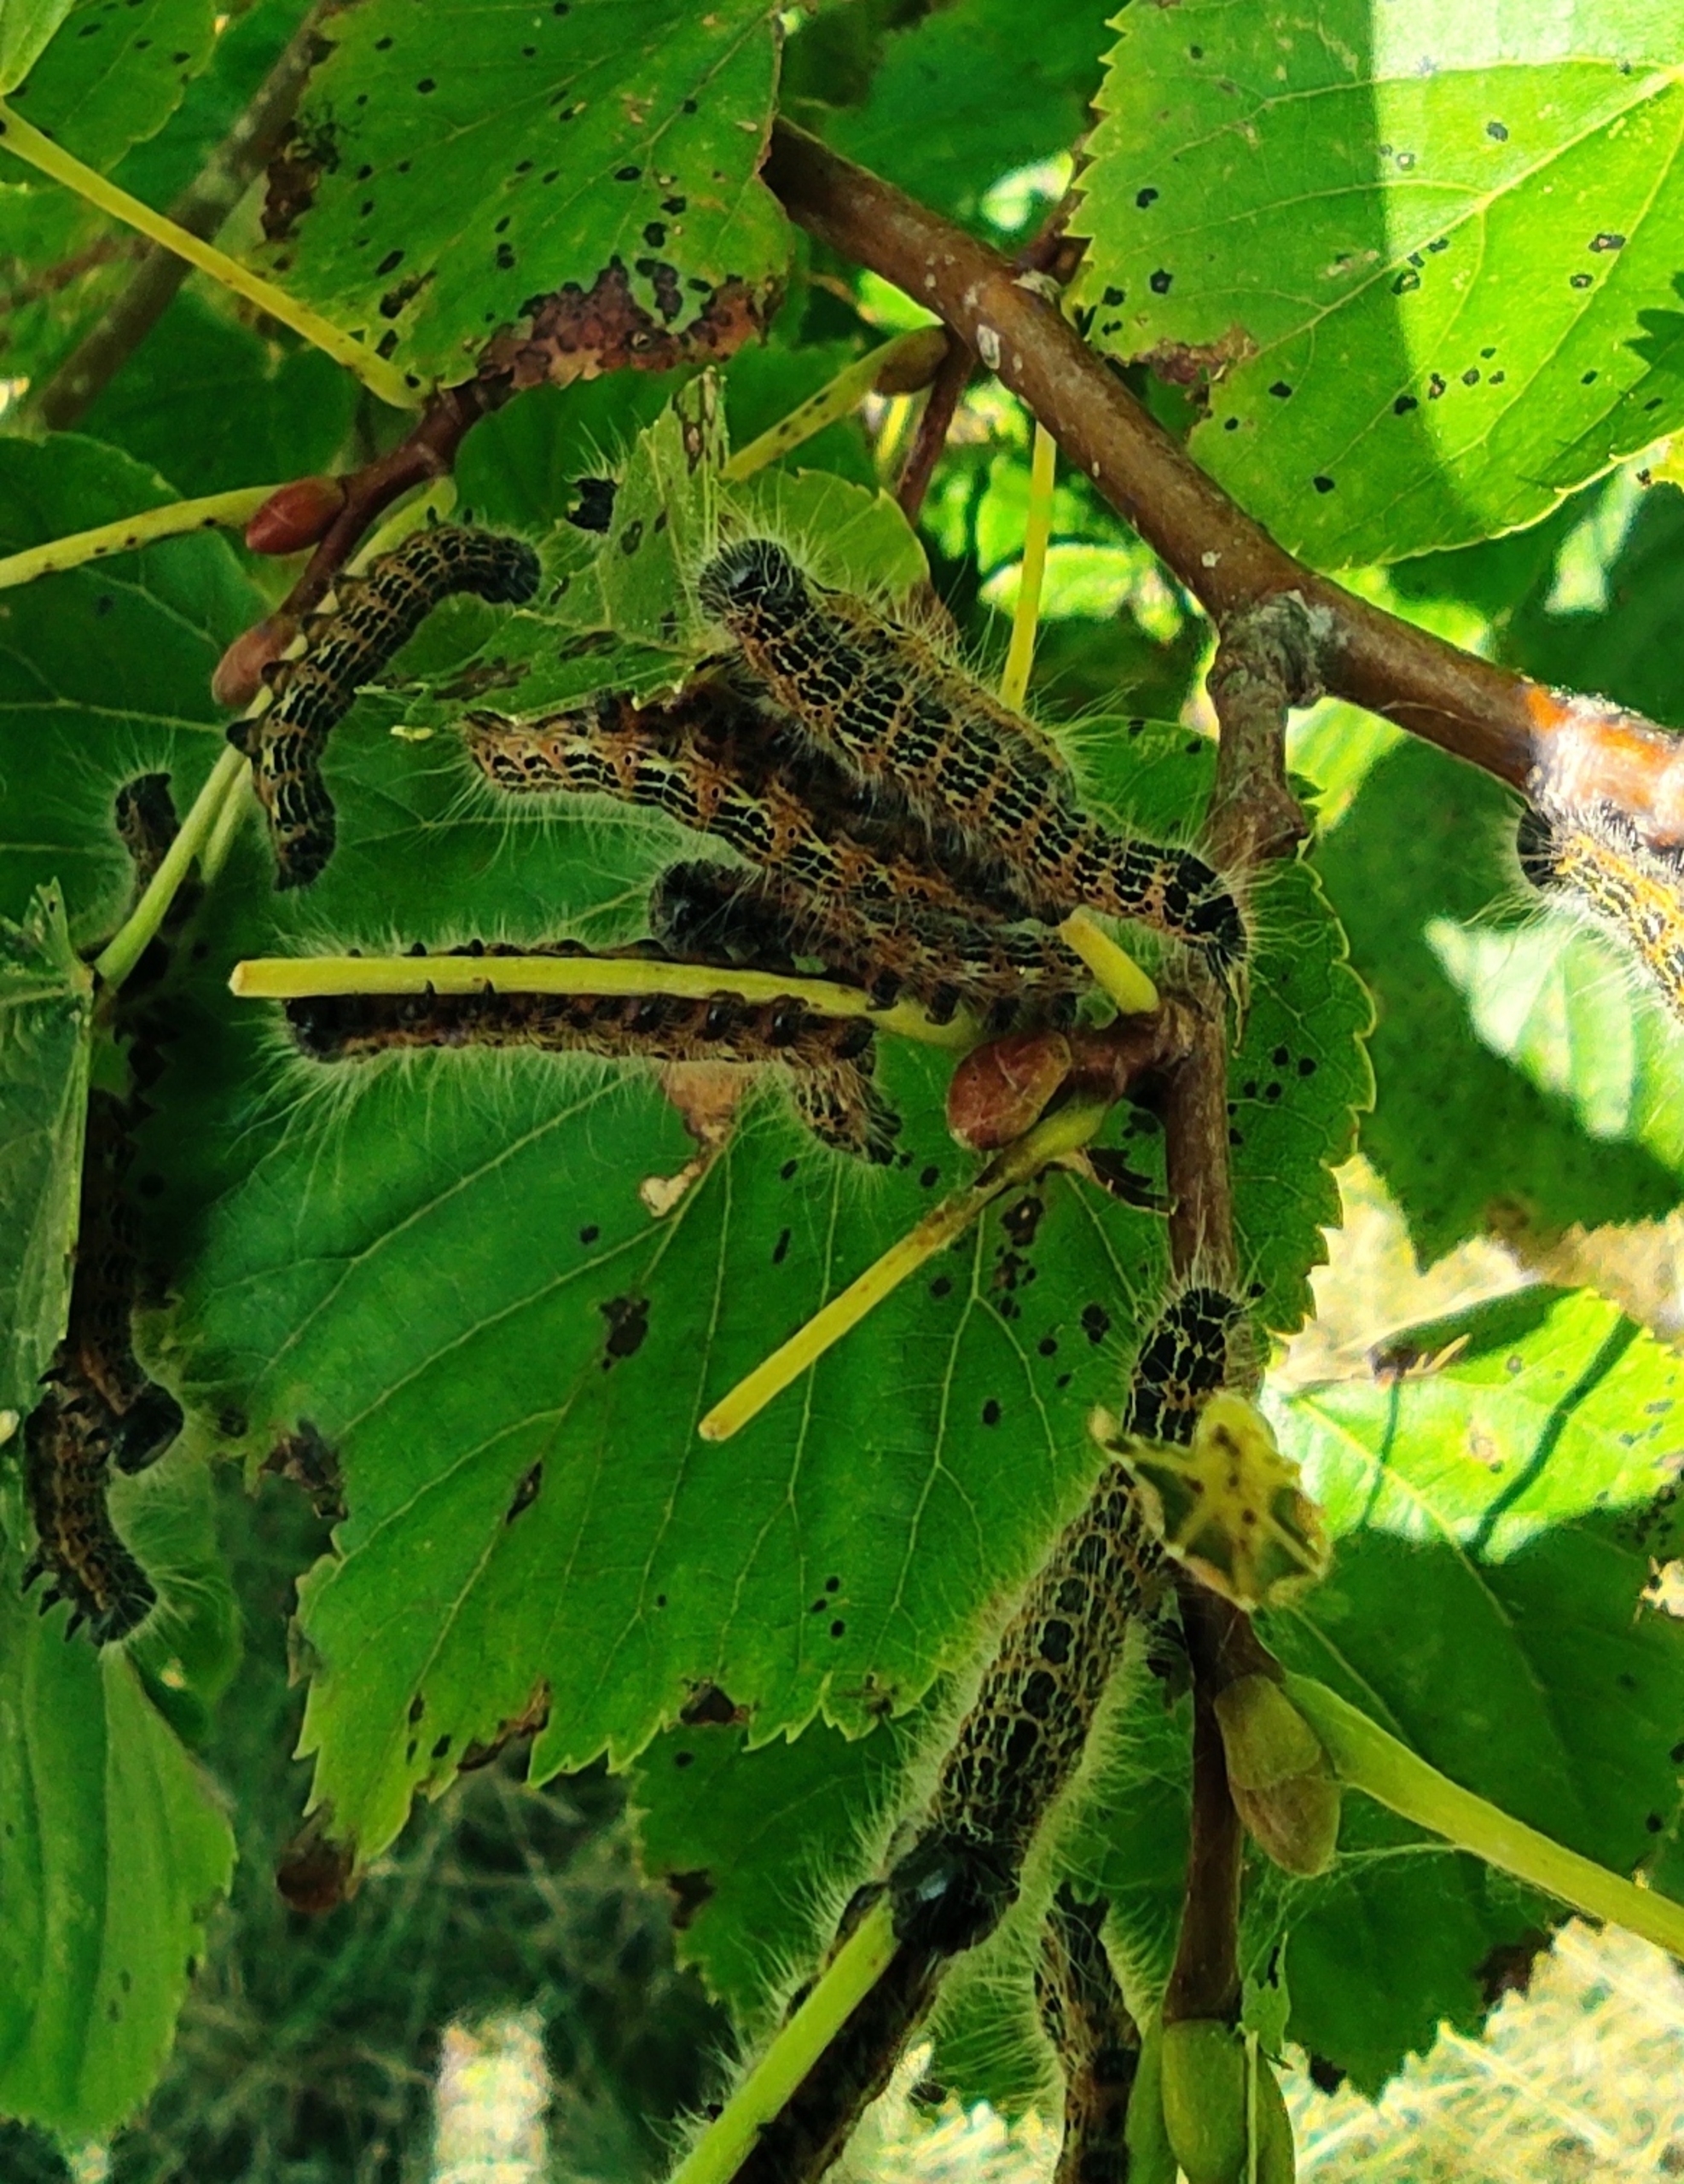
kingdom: Animalia
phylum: Arthropoda
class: Insecta
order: Lepidoptera
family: Notodontidae
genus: Phalera
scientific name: Phalera bucephala
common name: Måneplet
